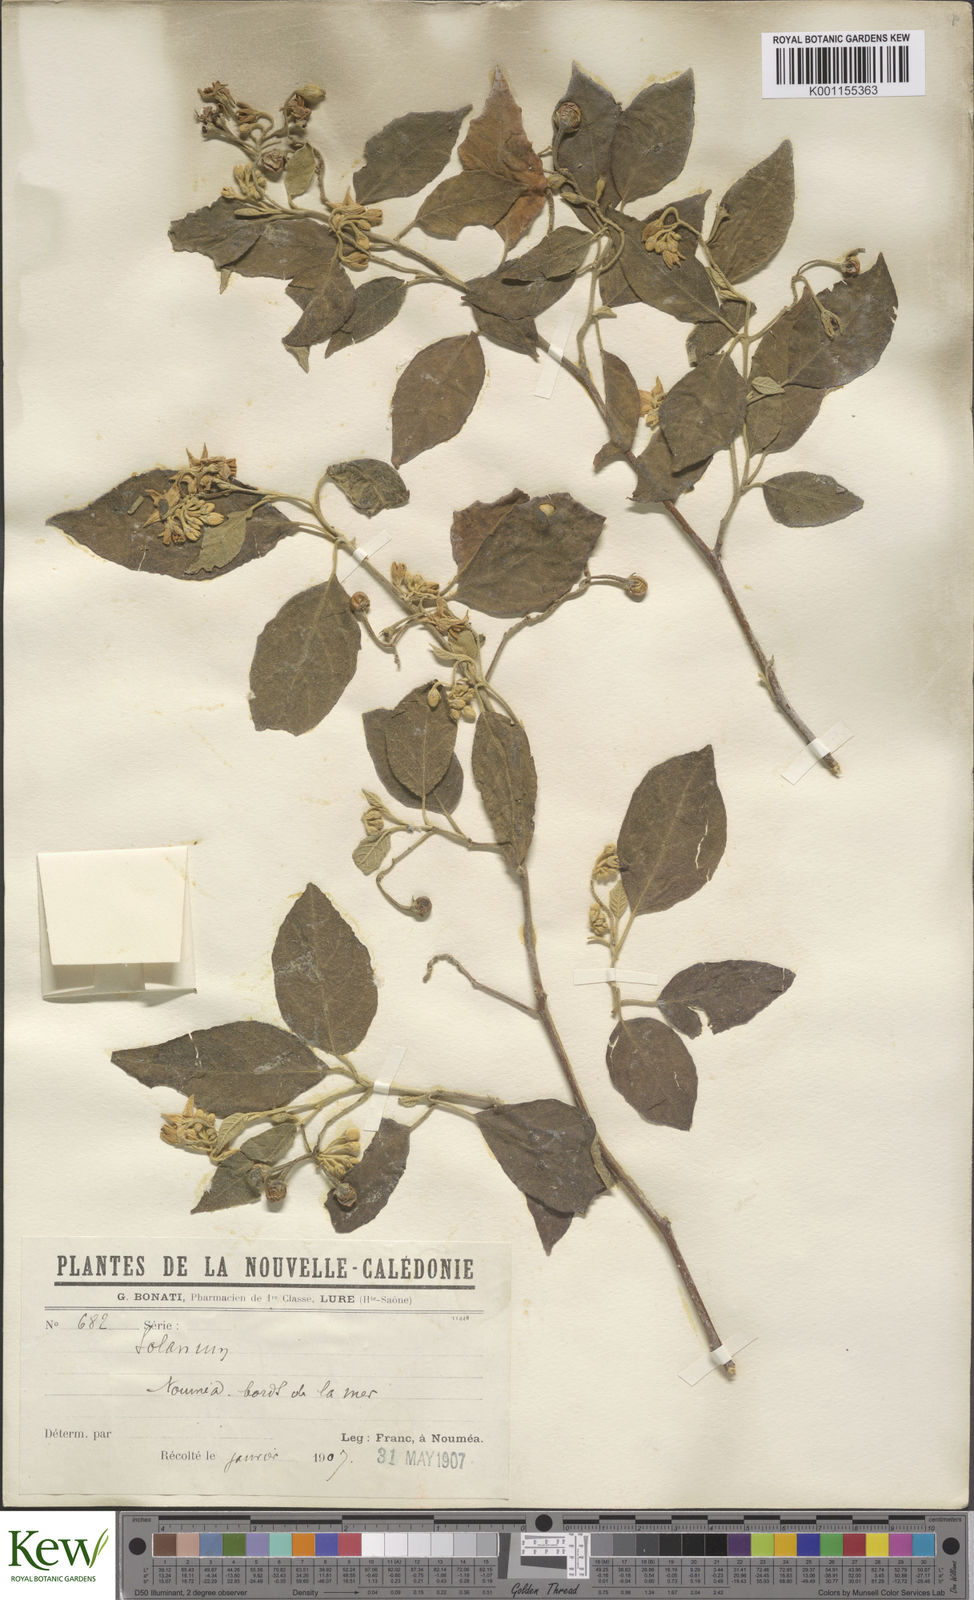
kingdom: Plantae
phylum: Tracheophyta
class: Magnoliopsida
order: Solanales
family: Solanaceae
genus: Solanum
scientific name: Solanum austrocaledonicum
